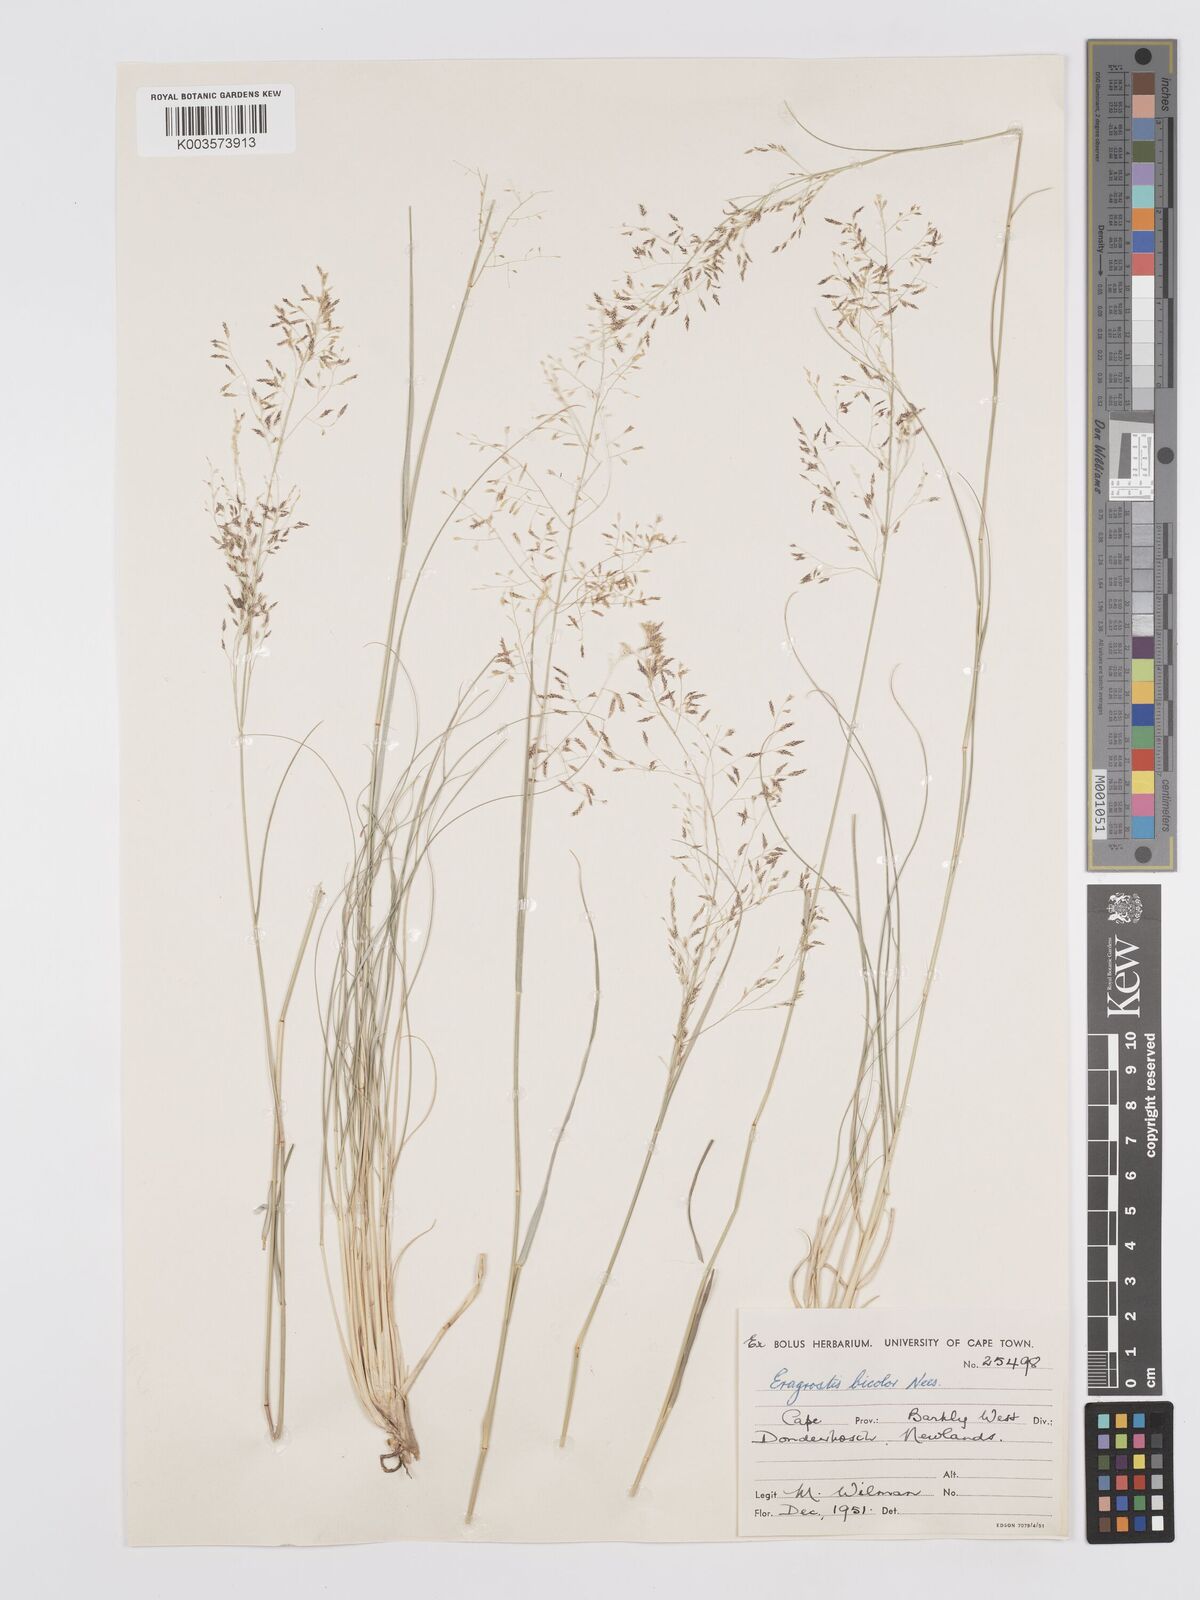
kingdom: Plantae
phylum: Tracheophyta
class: Liliopsida
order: Poales
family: Poaceae
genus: Eragrostis
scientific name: Eragrostis
